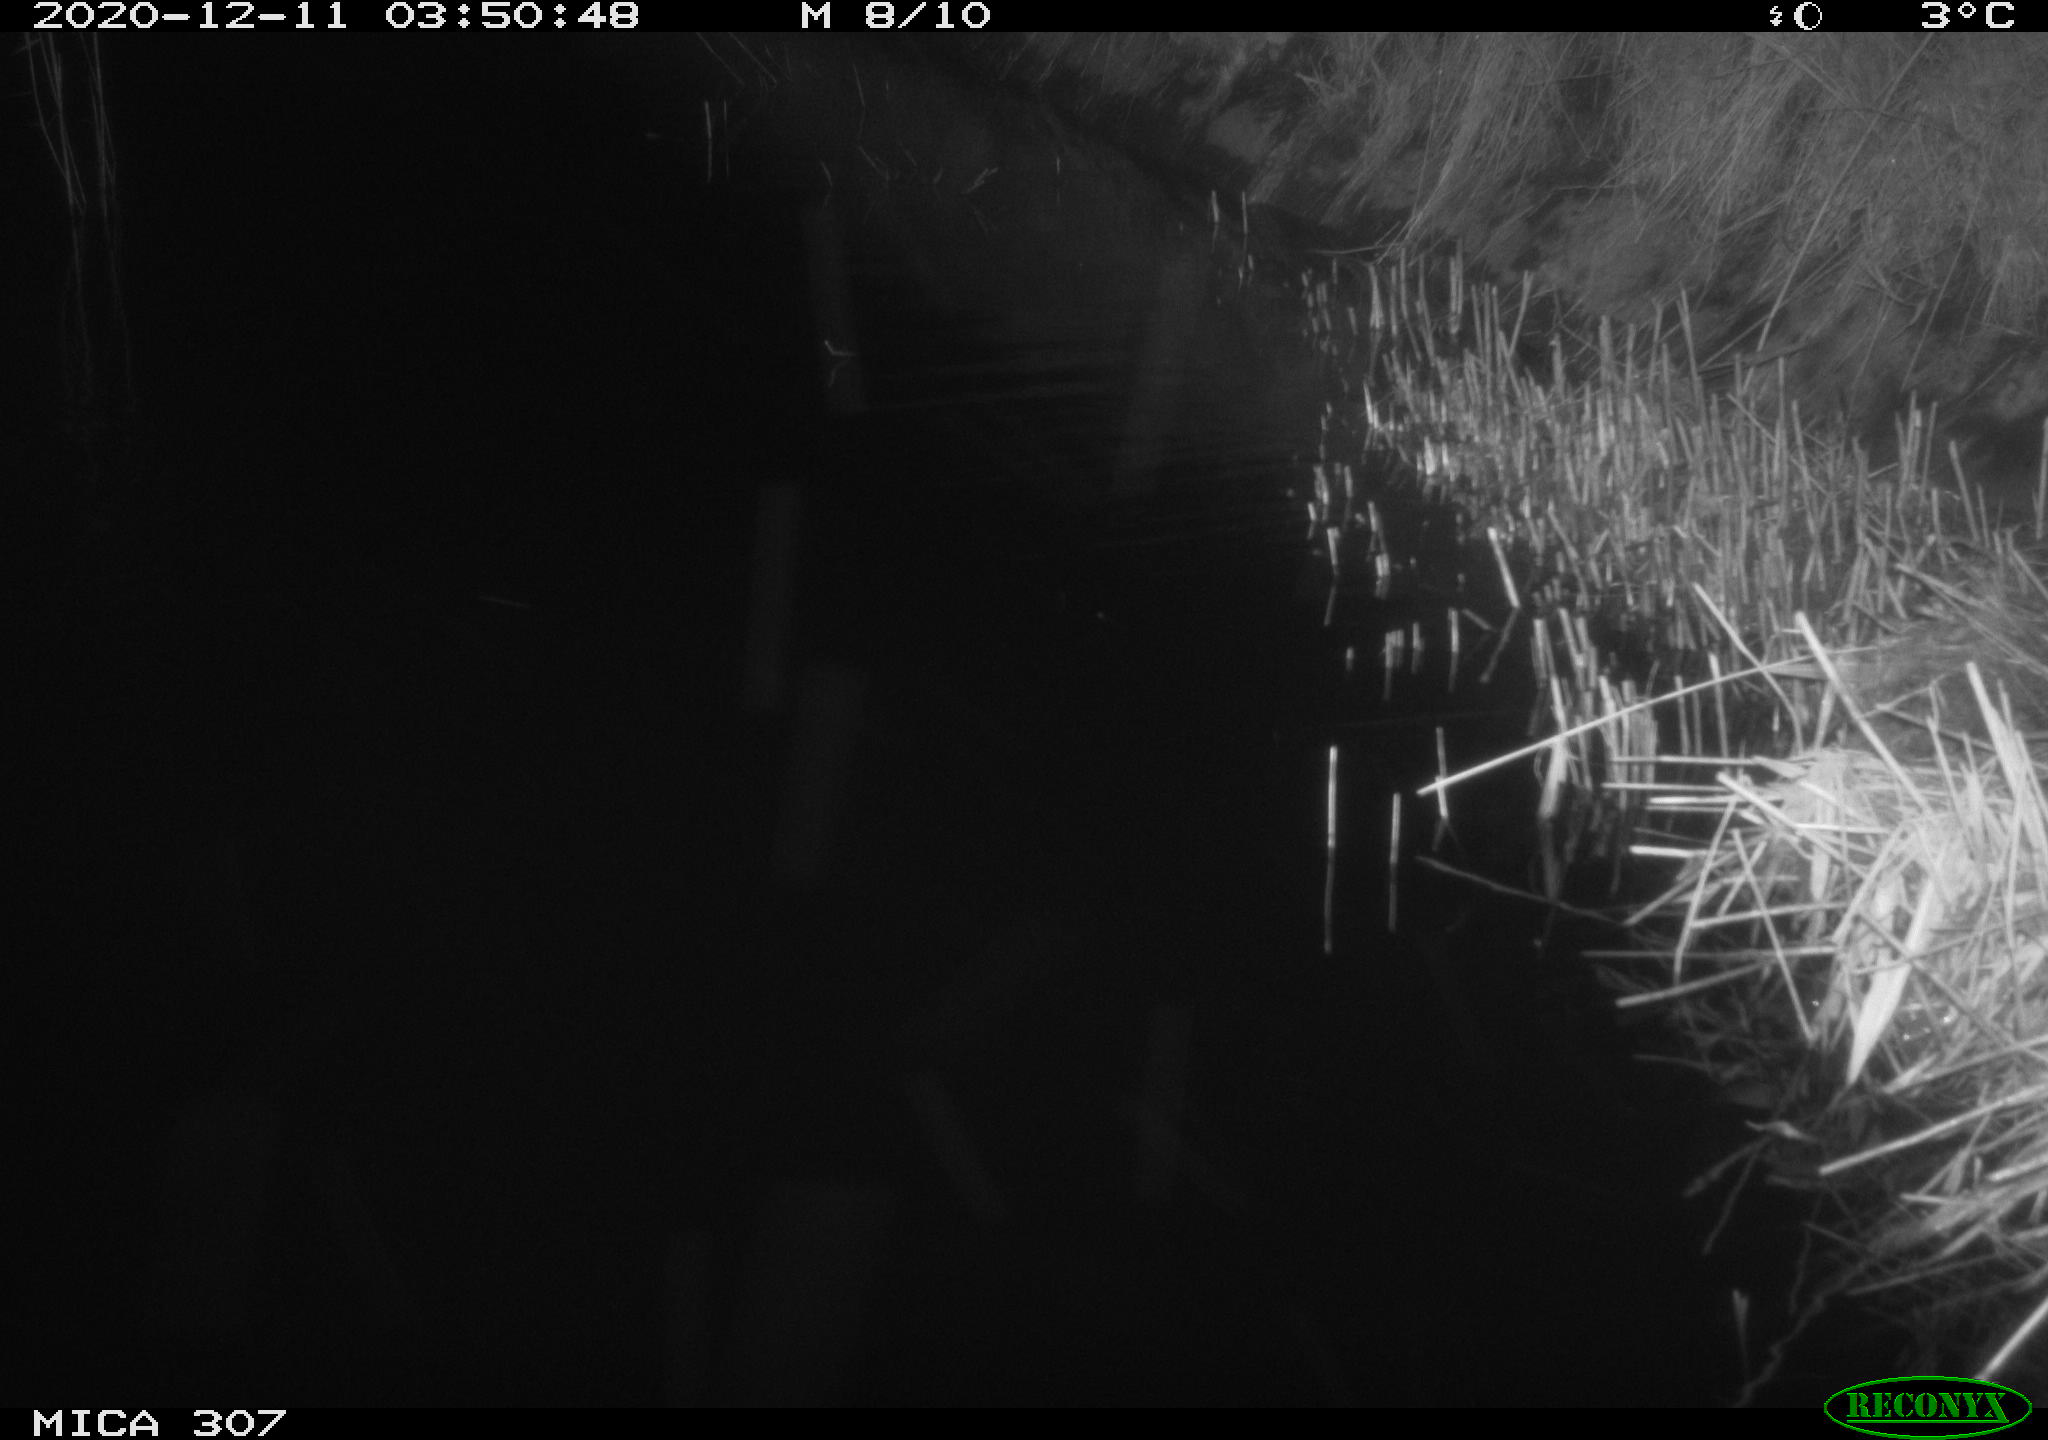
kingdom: Animalia
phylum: Chordata
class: Mammalia
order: Rodentia
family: Muridae
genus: Rattus
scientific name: Rattus norvegicus
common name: Brown rat
